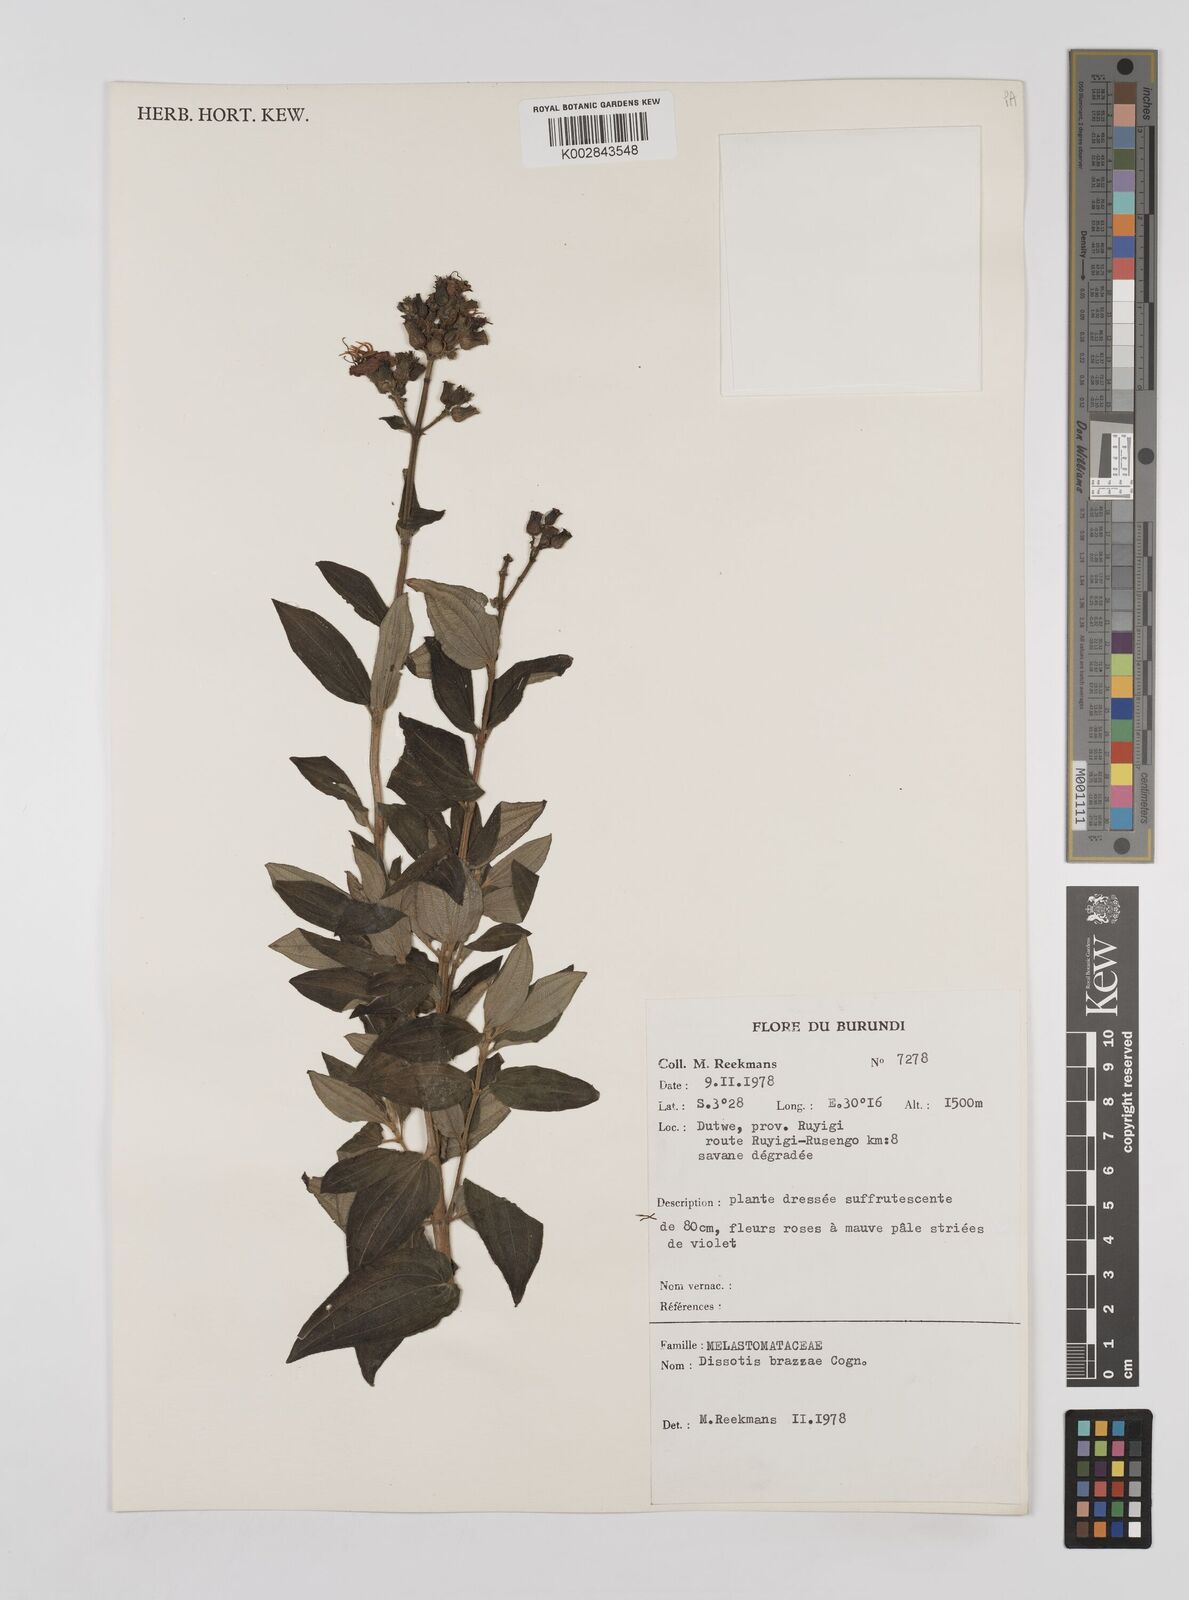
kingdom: Plantae
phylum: Tracheophyta
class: Magnoliopsida
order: Myrtales
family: Melastomataceae
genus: Dupineta
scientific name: Dupineta brazzae
